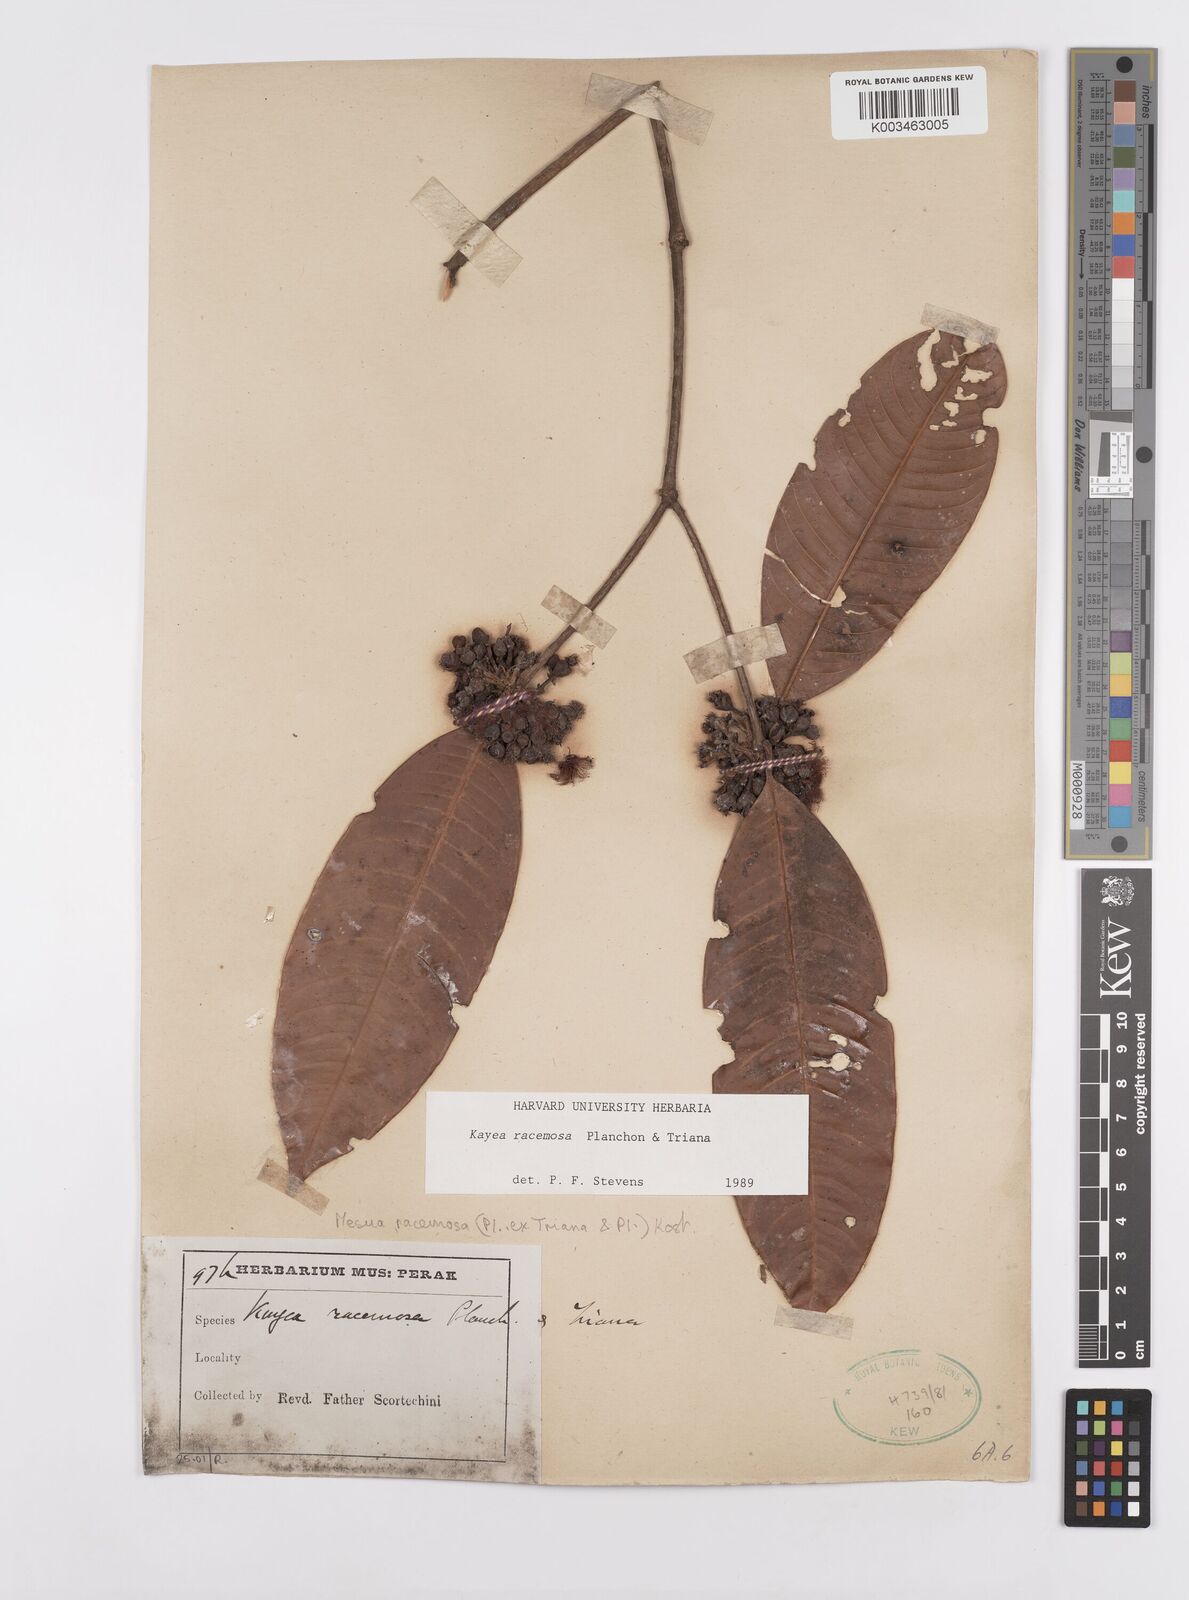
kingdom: Plantae
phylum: Tracheophyta
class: Magnoliopsida
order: Malpighiales
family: Calophyllaceae
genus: Kayea
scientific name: Kayea racemosa
